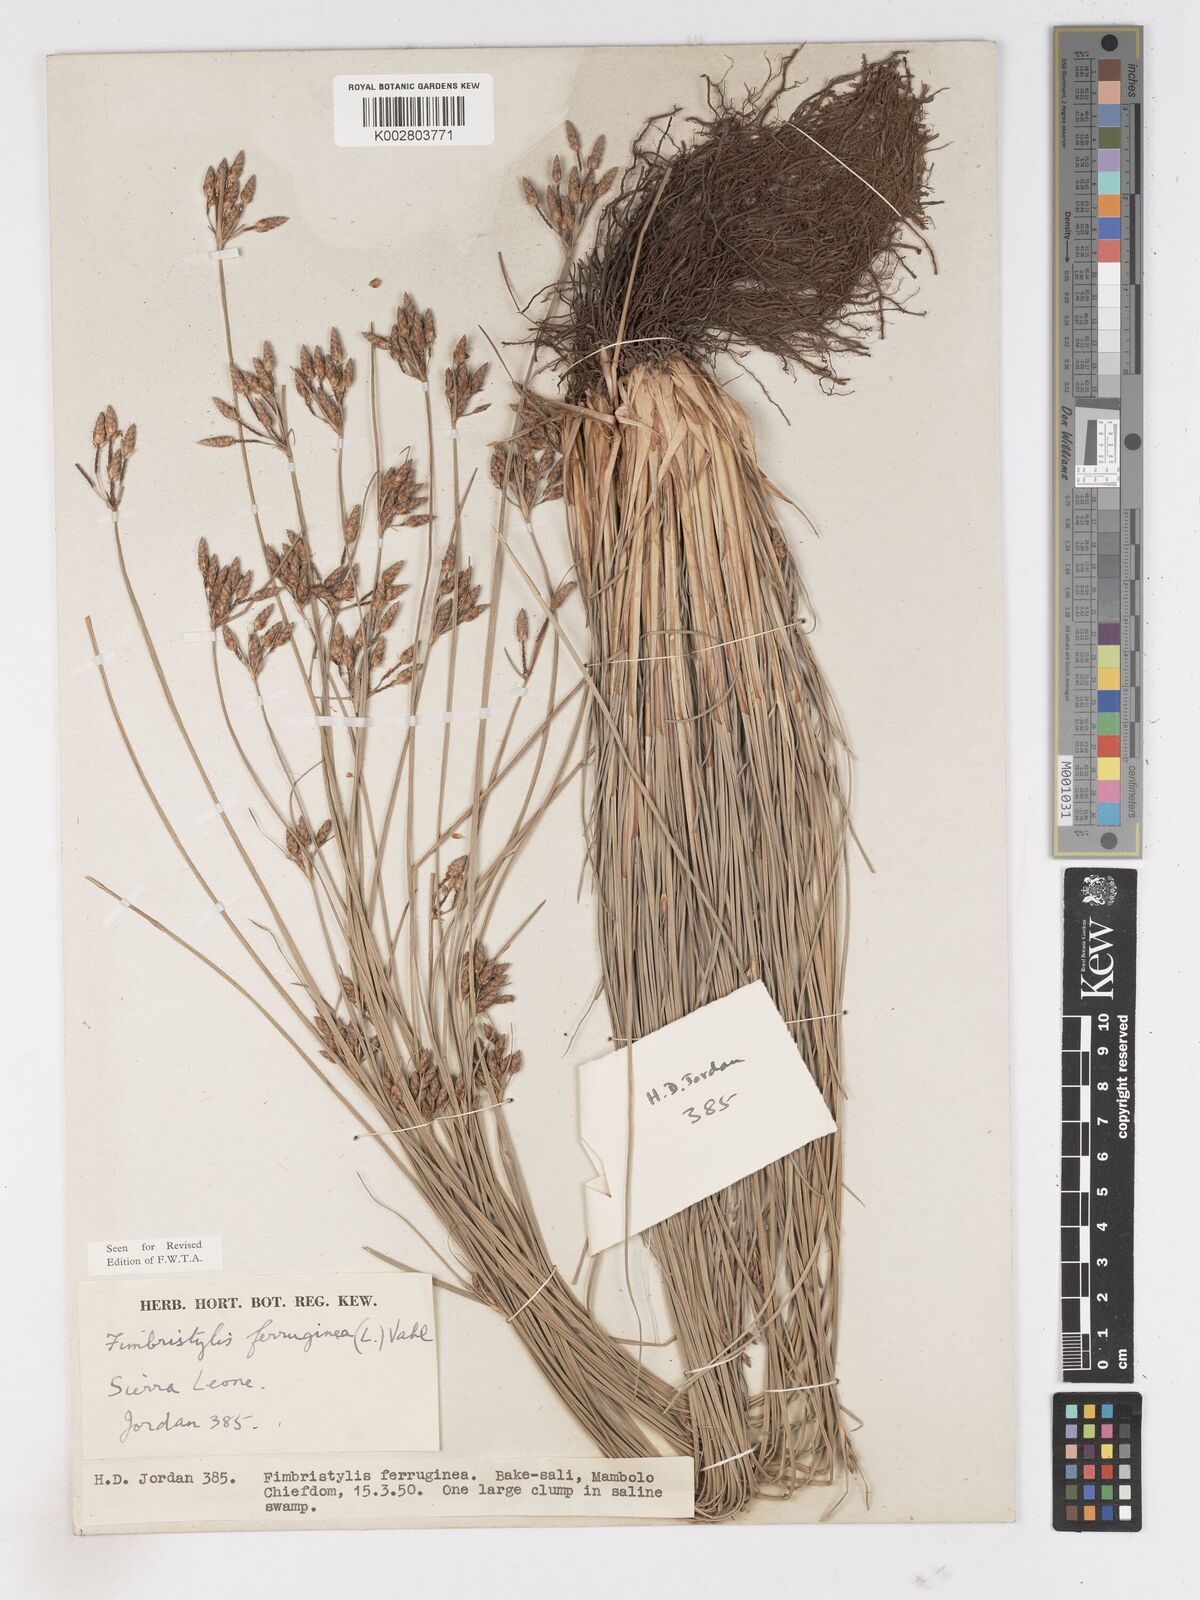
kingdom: Plantae
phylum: Tracheophyta
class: Liliopsida
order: Poales
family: Cyperaceae
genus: Fimbristylis
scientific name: Fimbristylis ferruginea
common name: West indian fimbry
